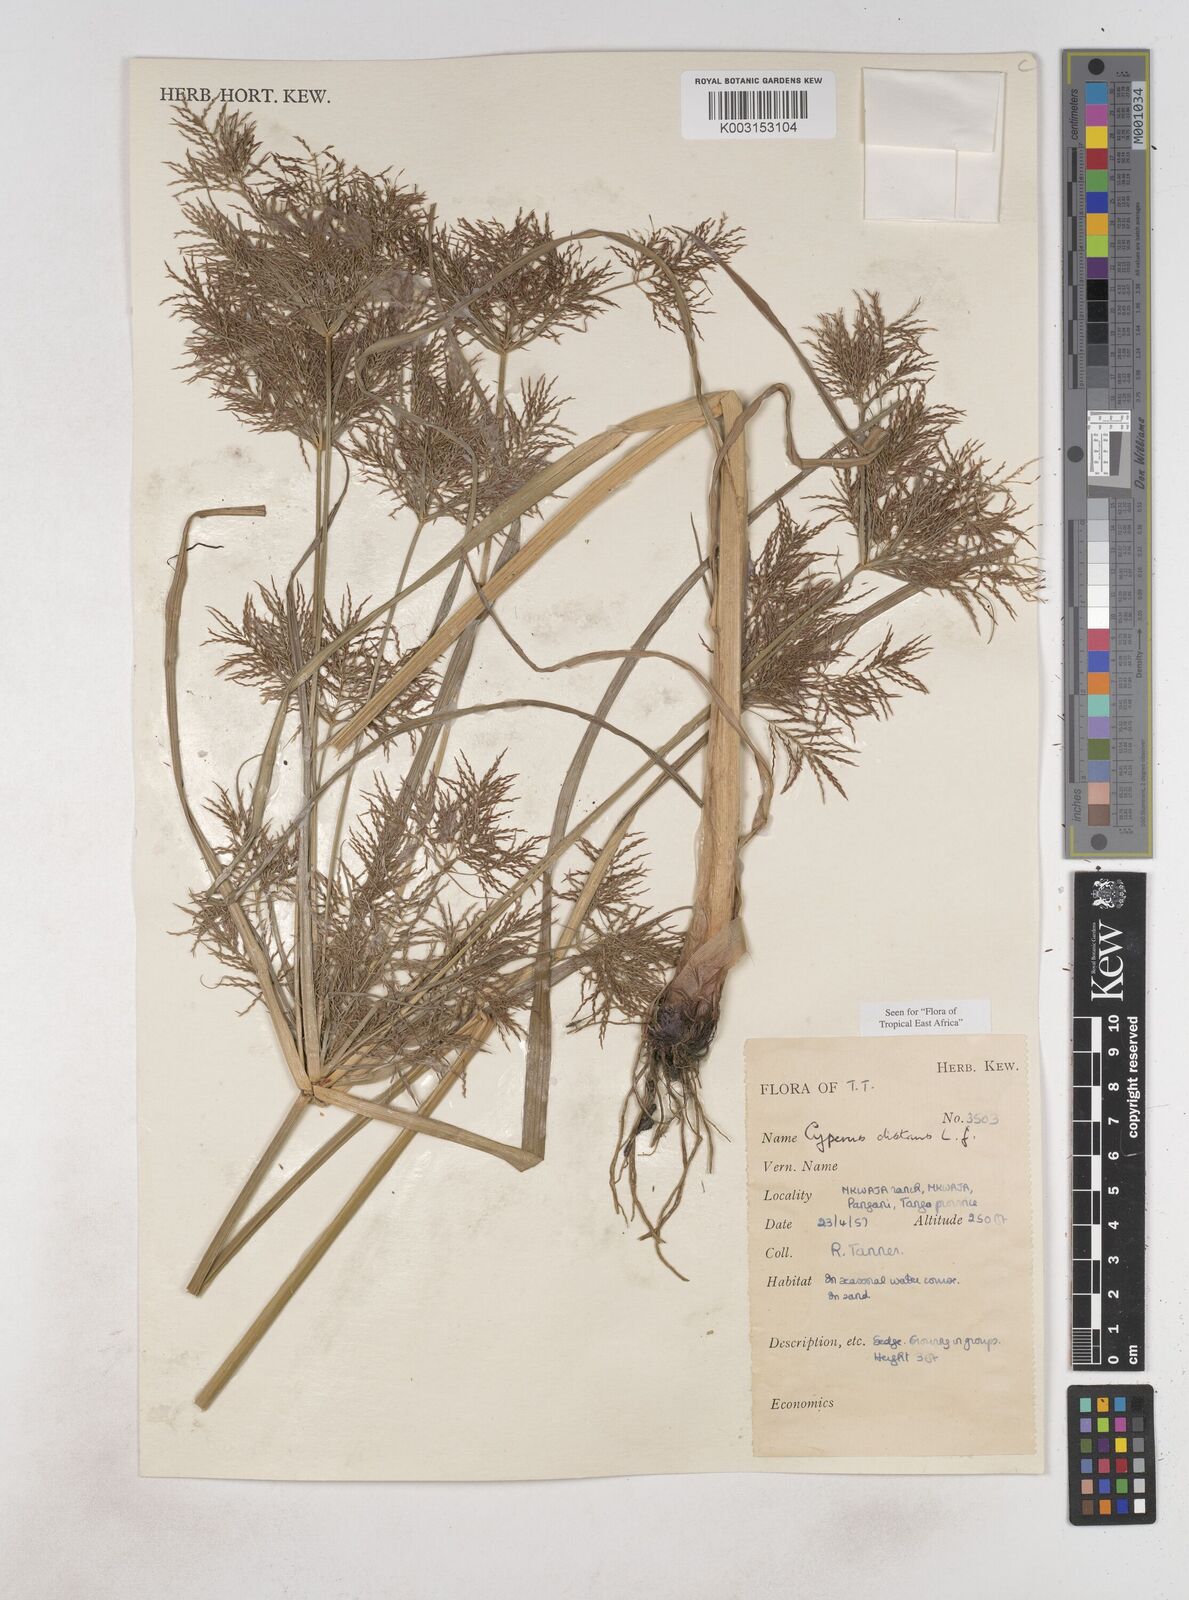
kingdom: Plantae
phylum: Tracheophyta
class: Liliopsida
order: Poales
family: Cyperaceae
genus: Cyperus
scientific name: Cyperus distans
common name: Slender cyperus
